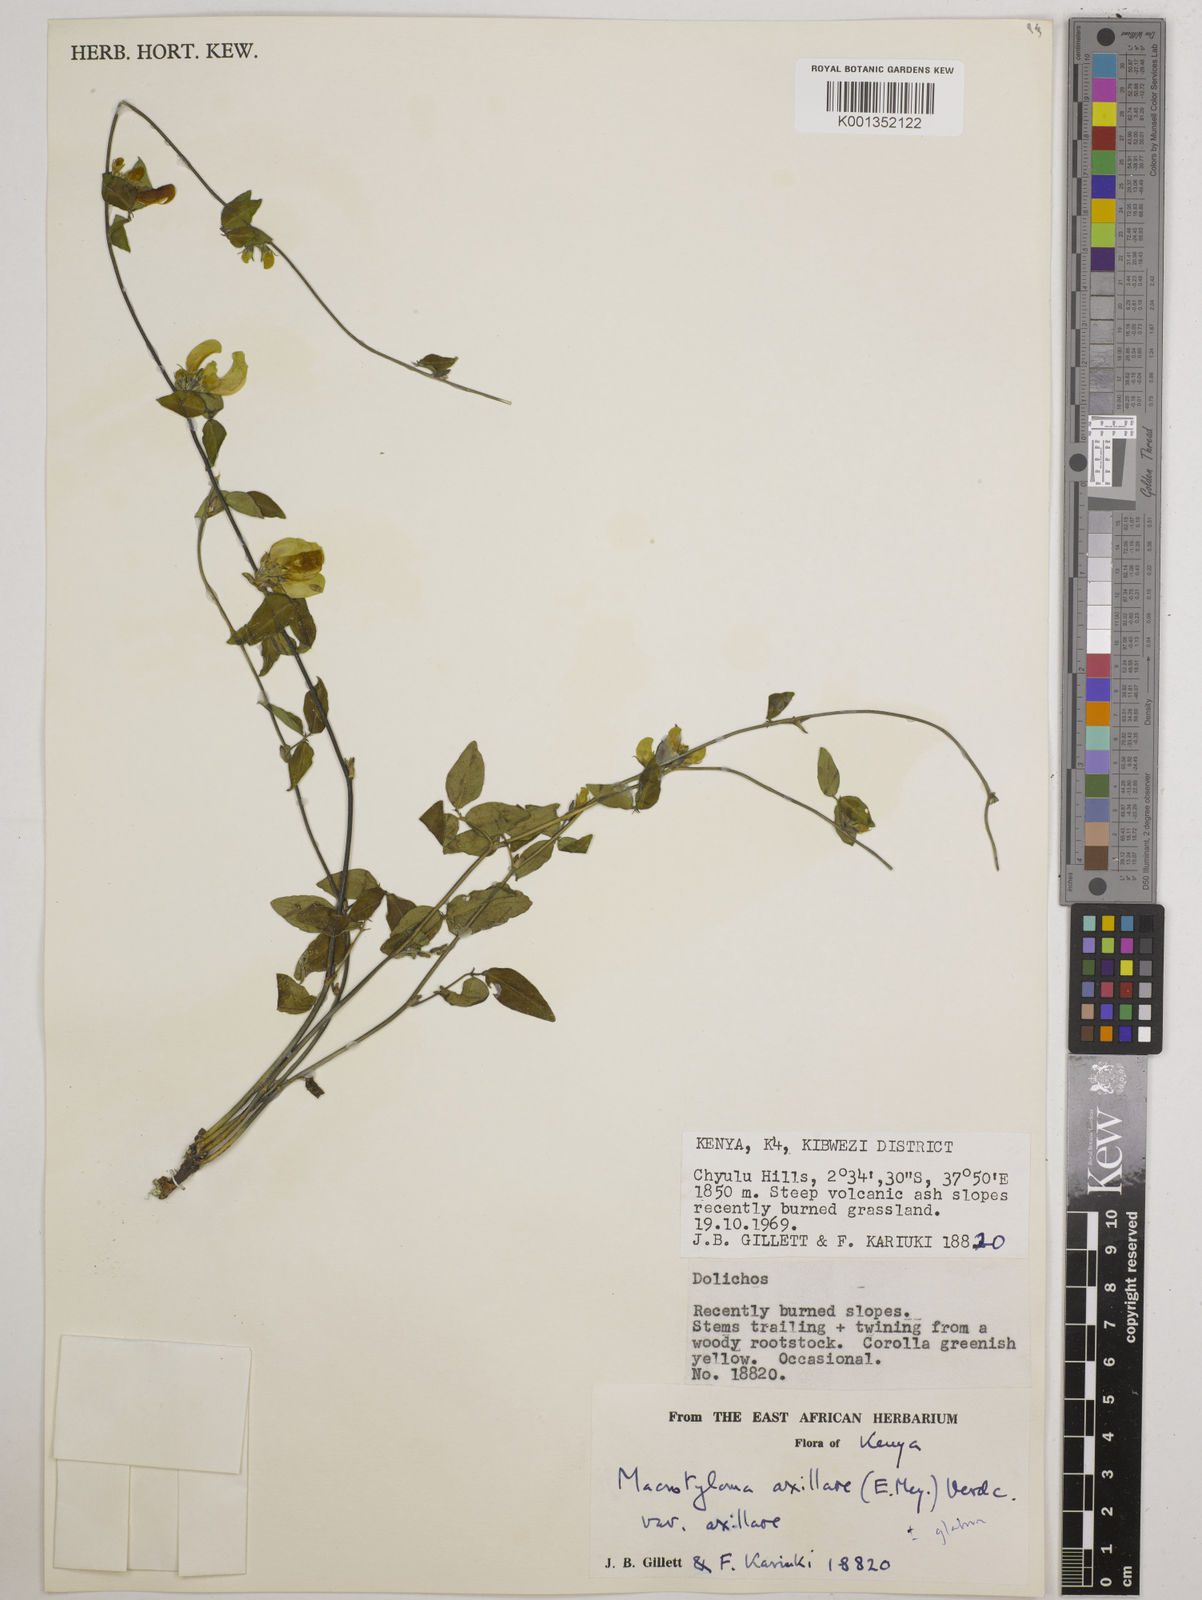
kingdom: Plantae
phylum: Tracheophyta
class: Magnoliopsida
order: Fabales
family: Fabaceae
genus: Macrotyloma
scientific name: Macrotyloma axillare
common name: Perennial horsegram
